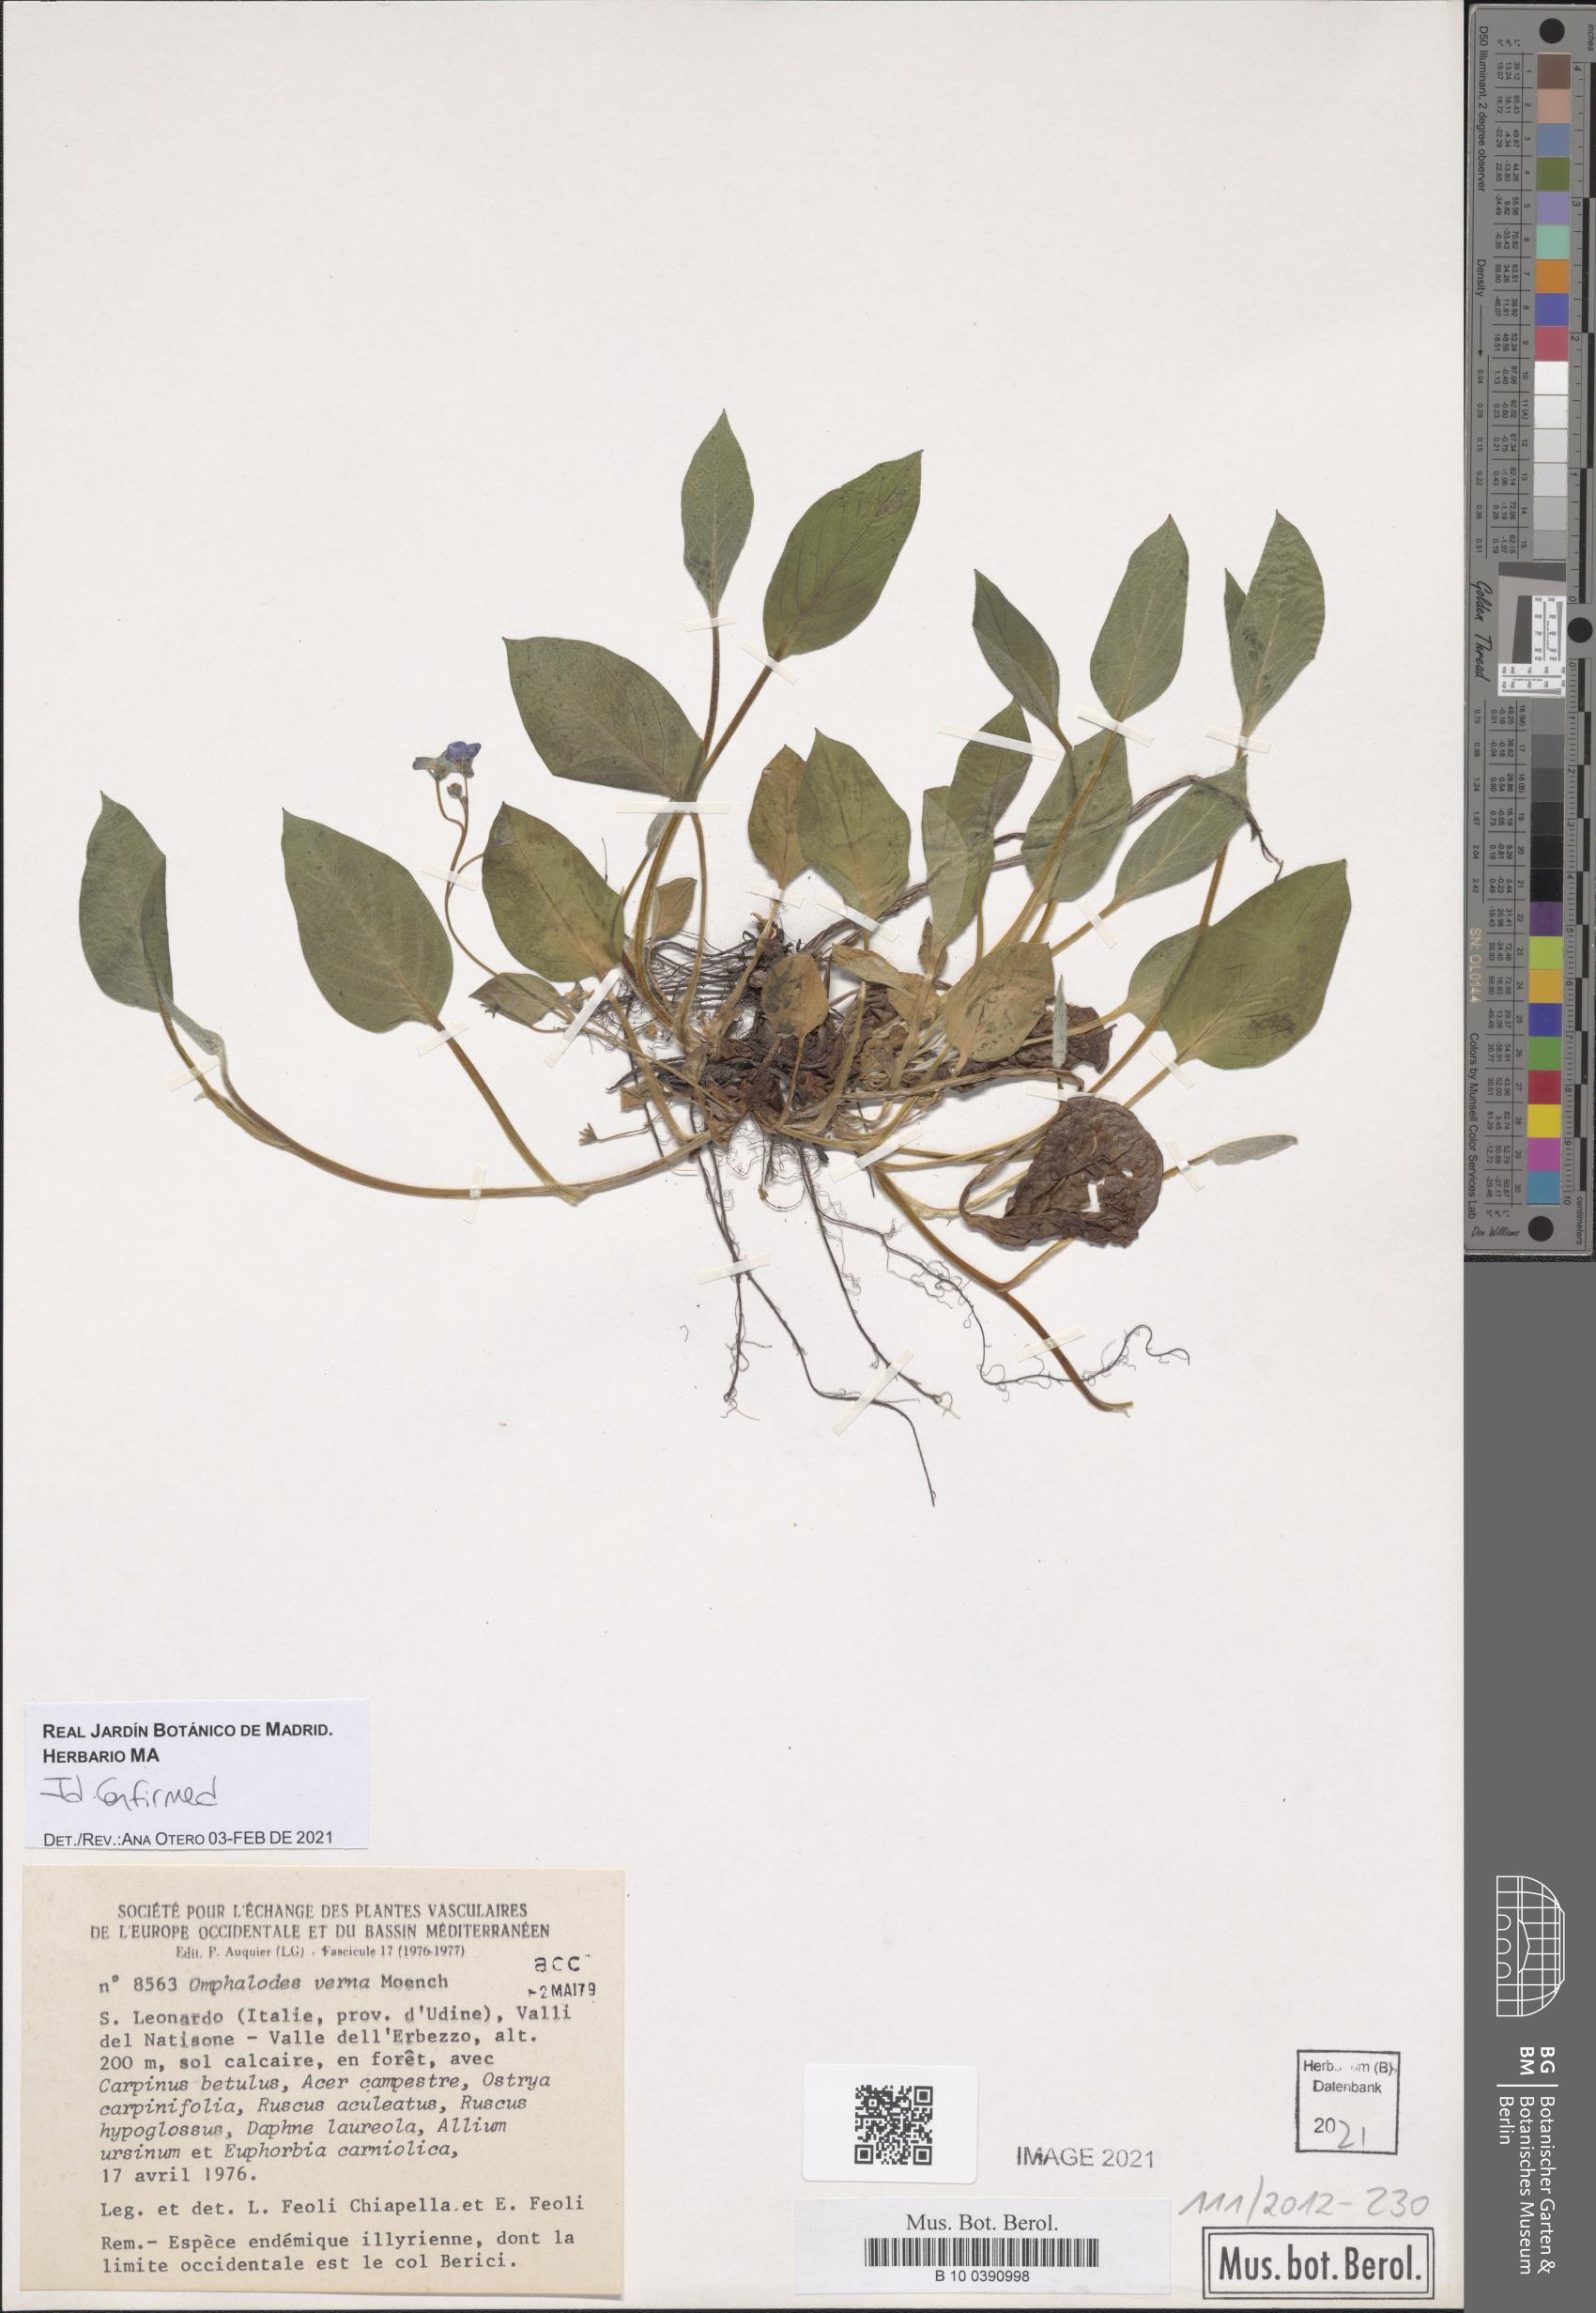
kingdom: Plantae
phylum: Tracheophyta
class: Magnoliopsida
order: Boraginales
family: Boraginaceae
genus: Omphalodes
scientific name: Omphalodes verna
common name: Blue-eyed-mary
